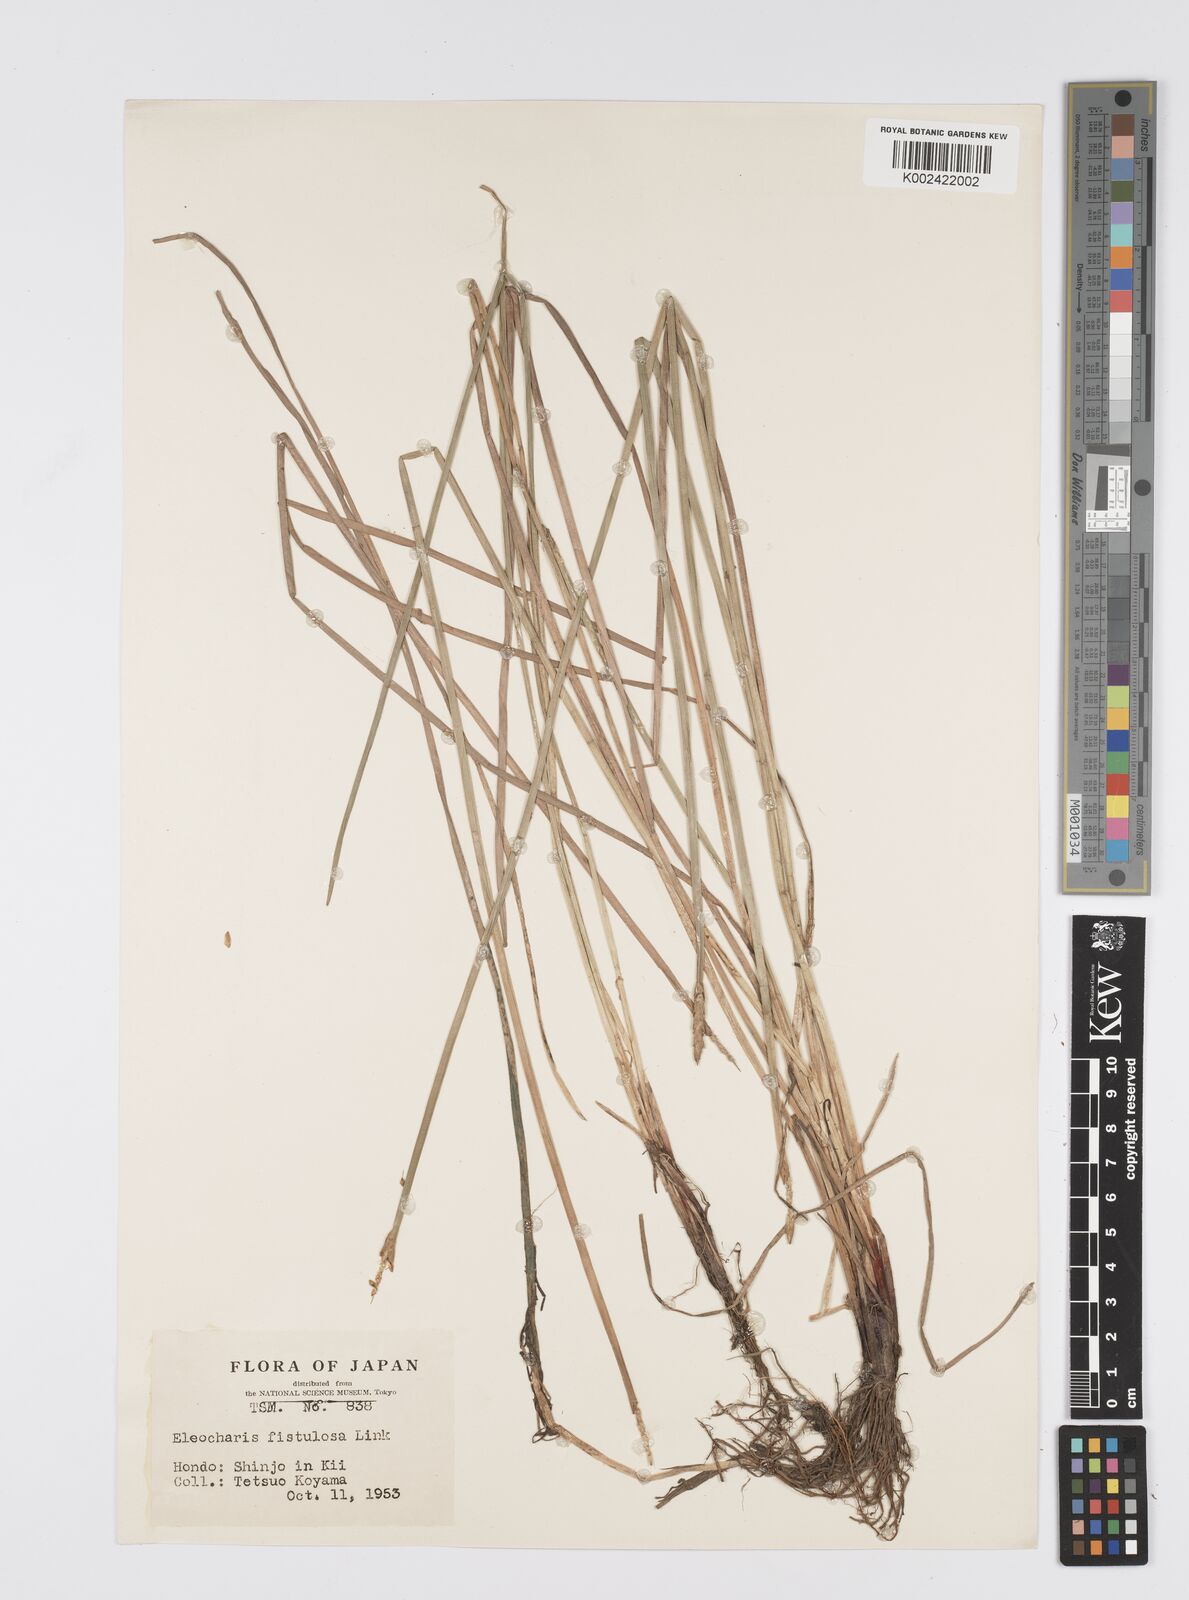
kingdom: Plantae
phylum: Tracheophyta
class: Liliopsida
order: Poales
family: Cyperaceae
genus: Eleocharis
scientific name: Eleocharis acutangula
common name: Acute spikerush
